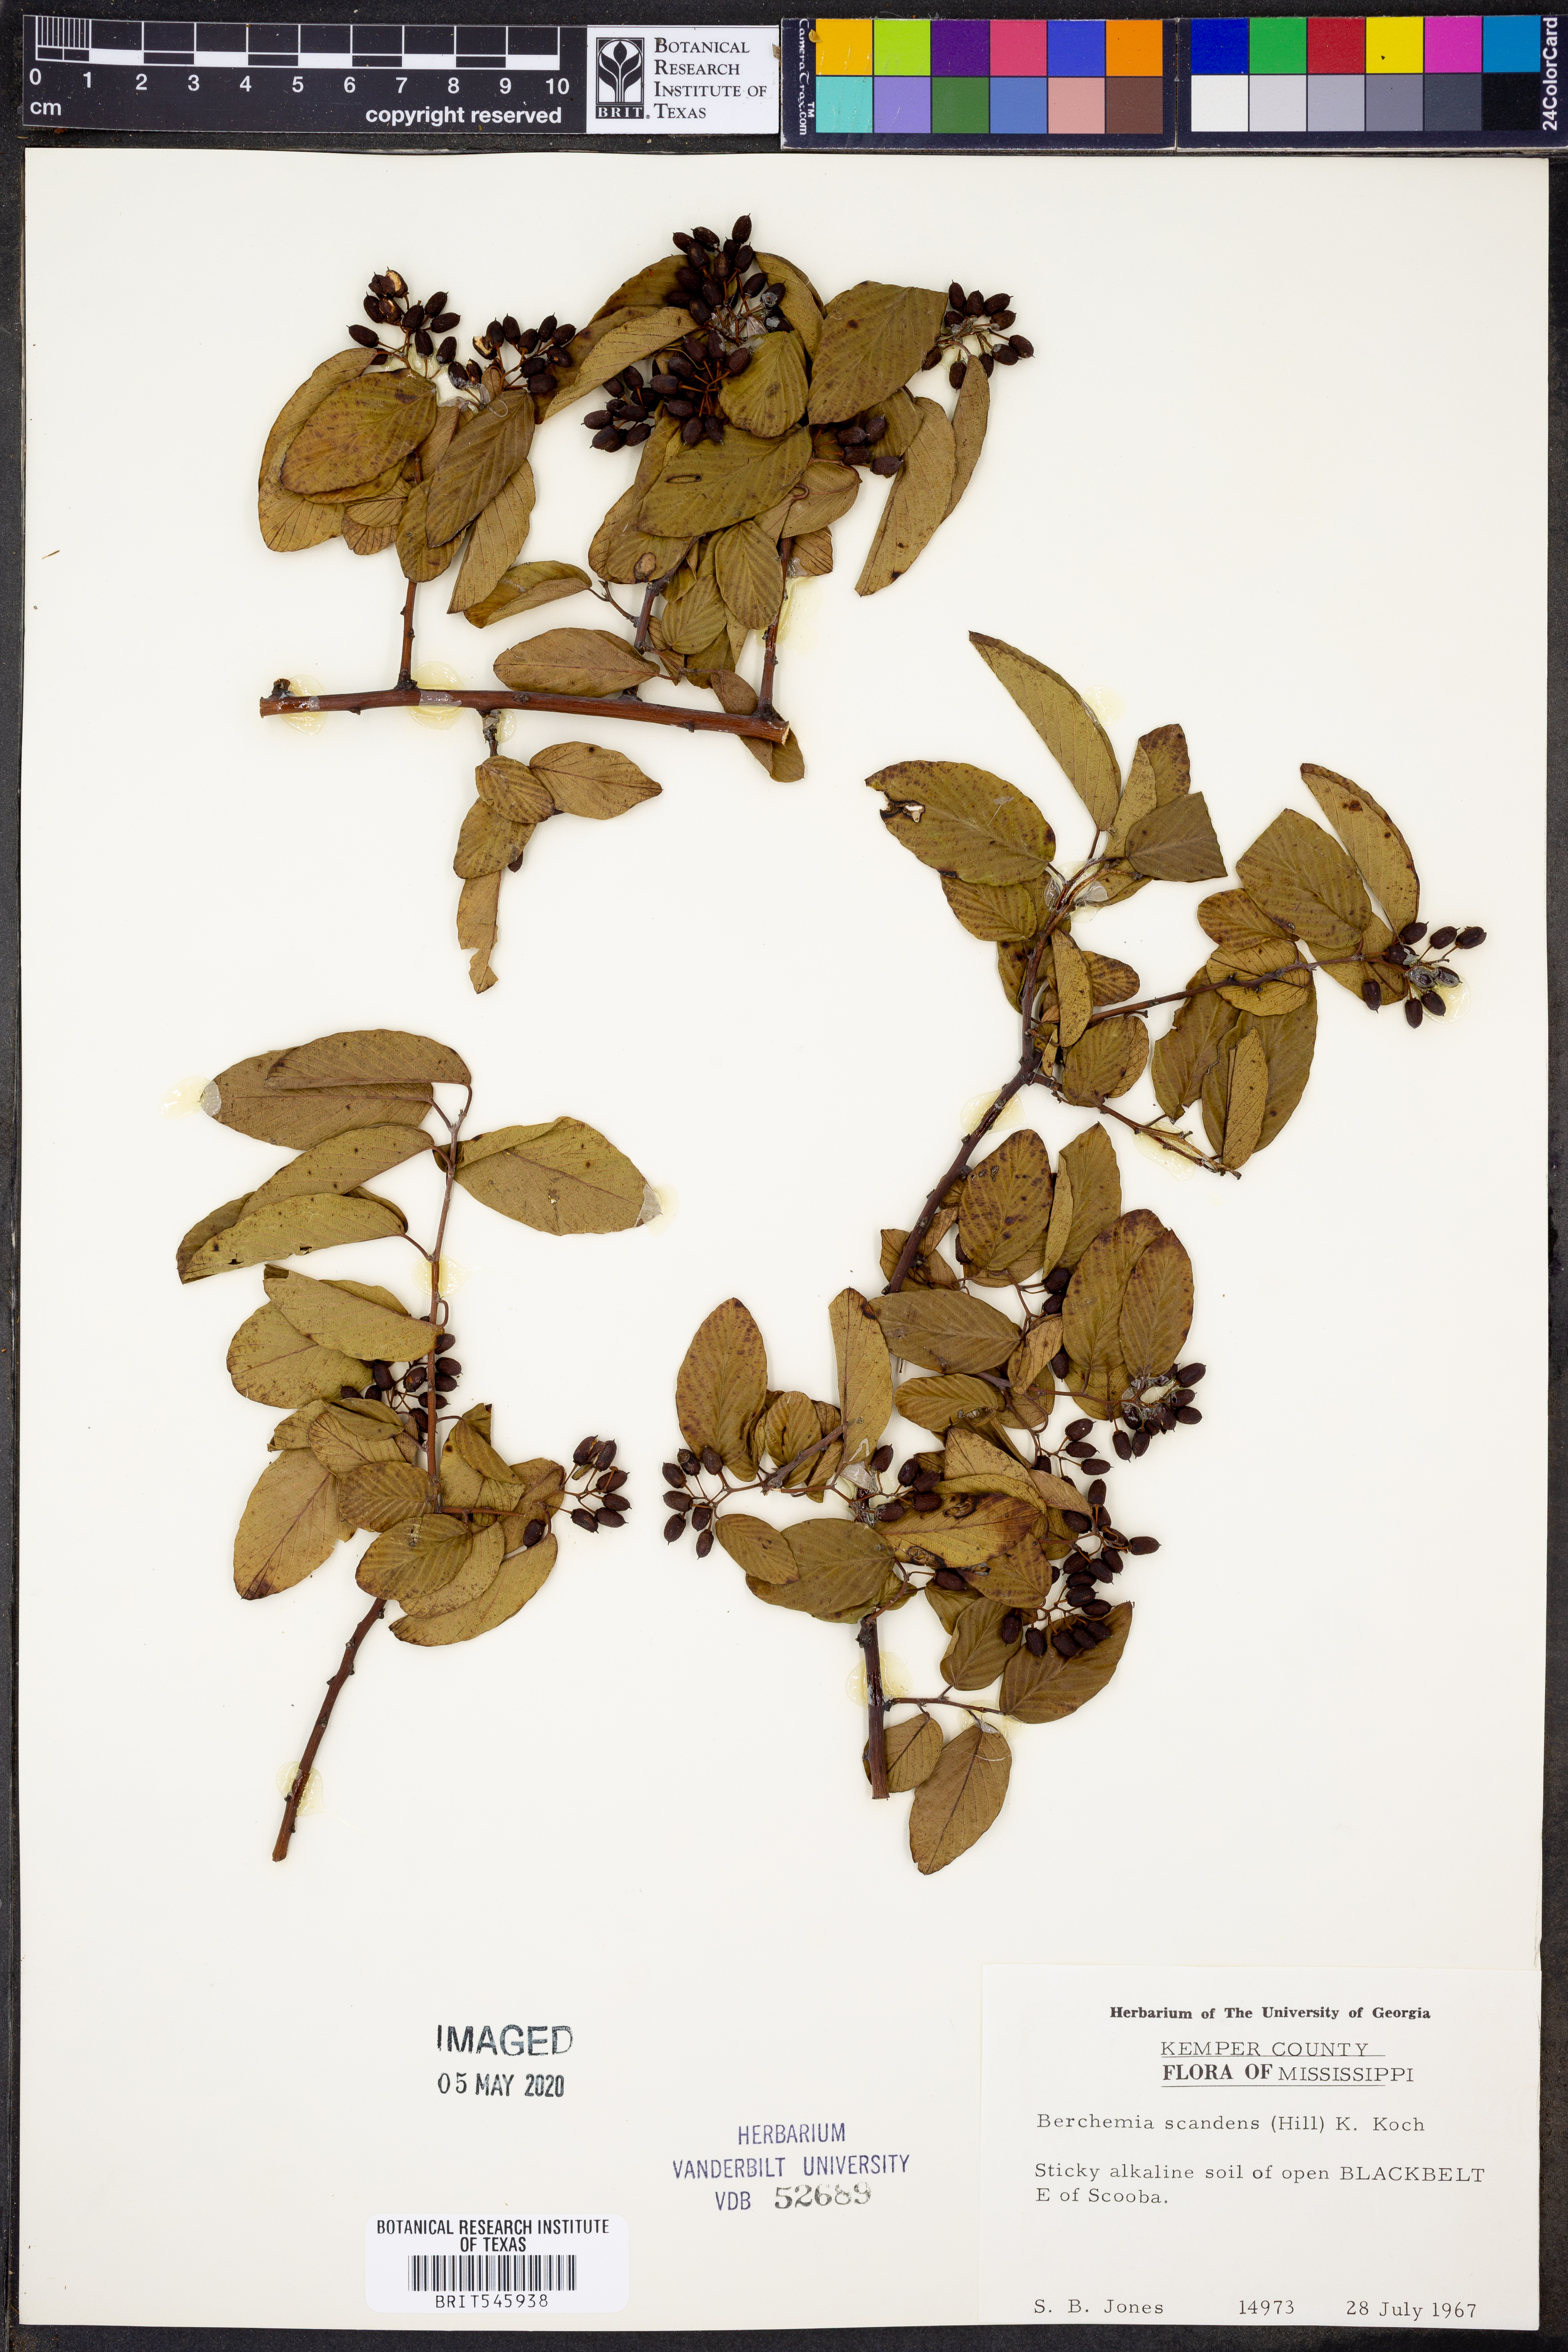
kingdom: Plantae
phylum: Tracheophyta
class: Magnoliopsida
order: Rosales
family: Rhamnaceae
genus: Berchemia
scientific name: Berchemia scandens
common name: Supplejack
